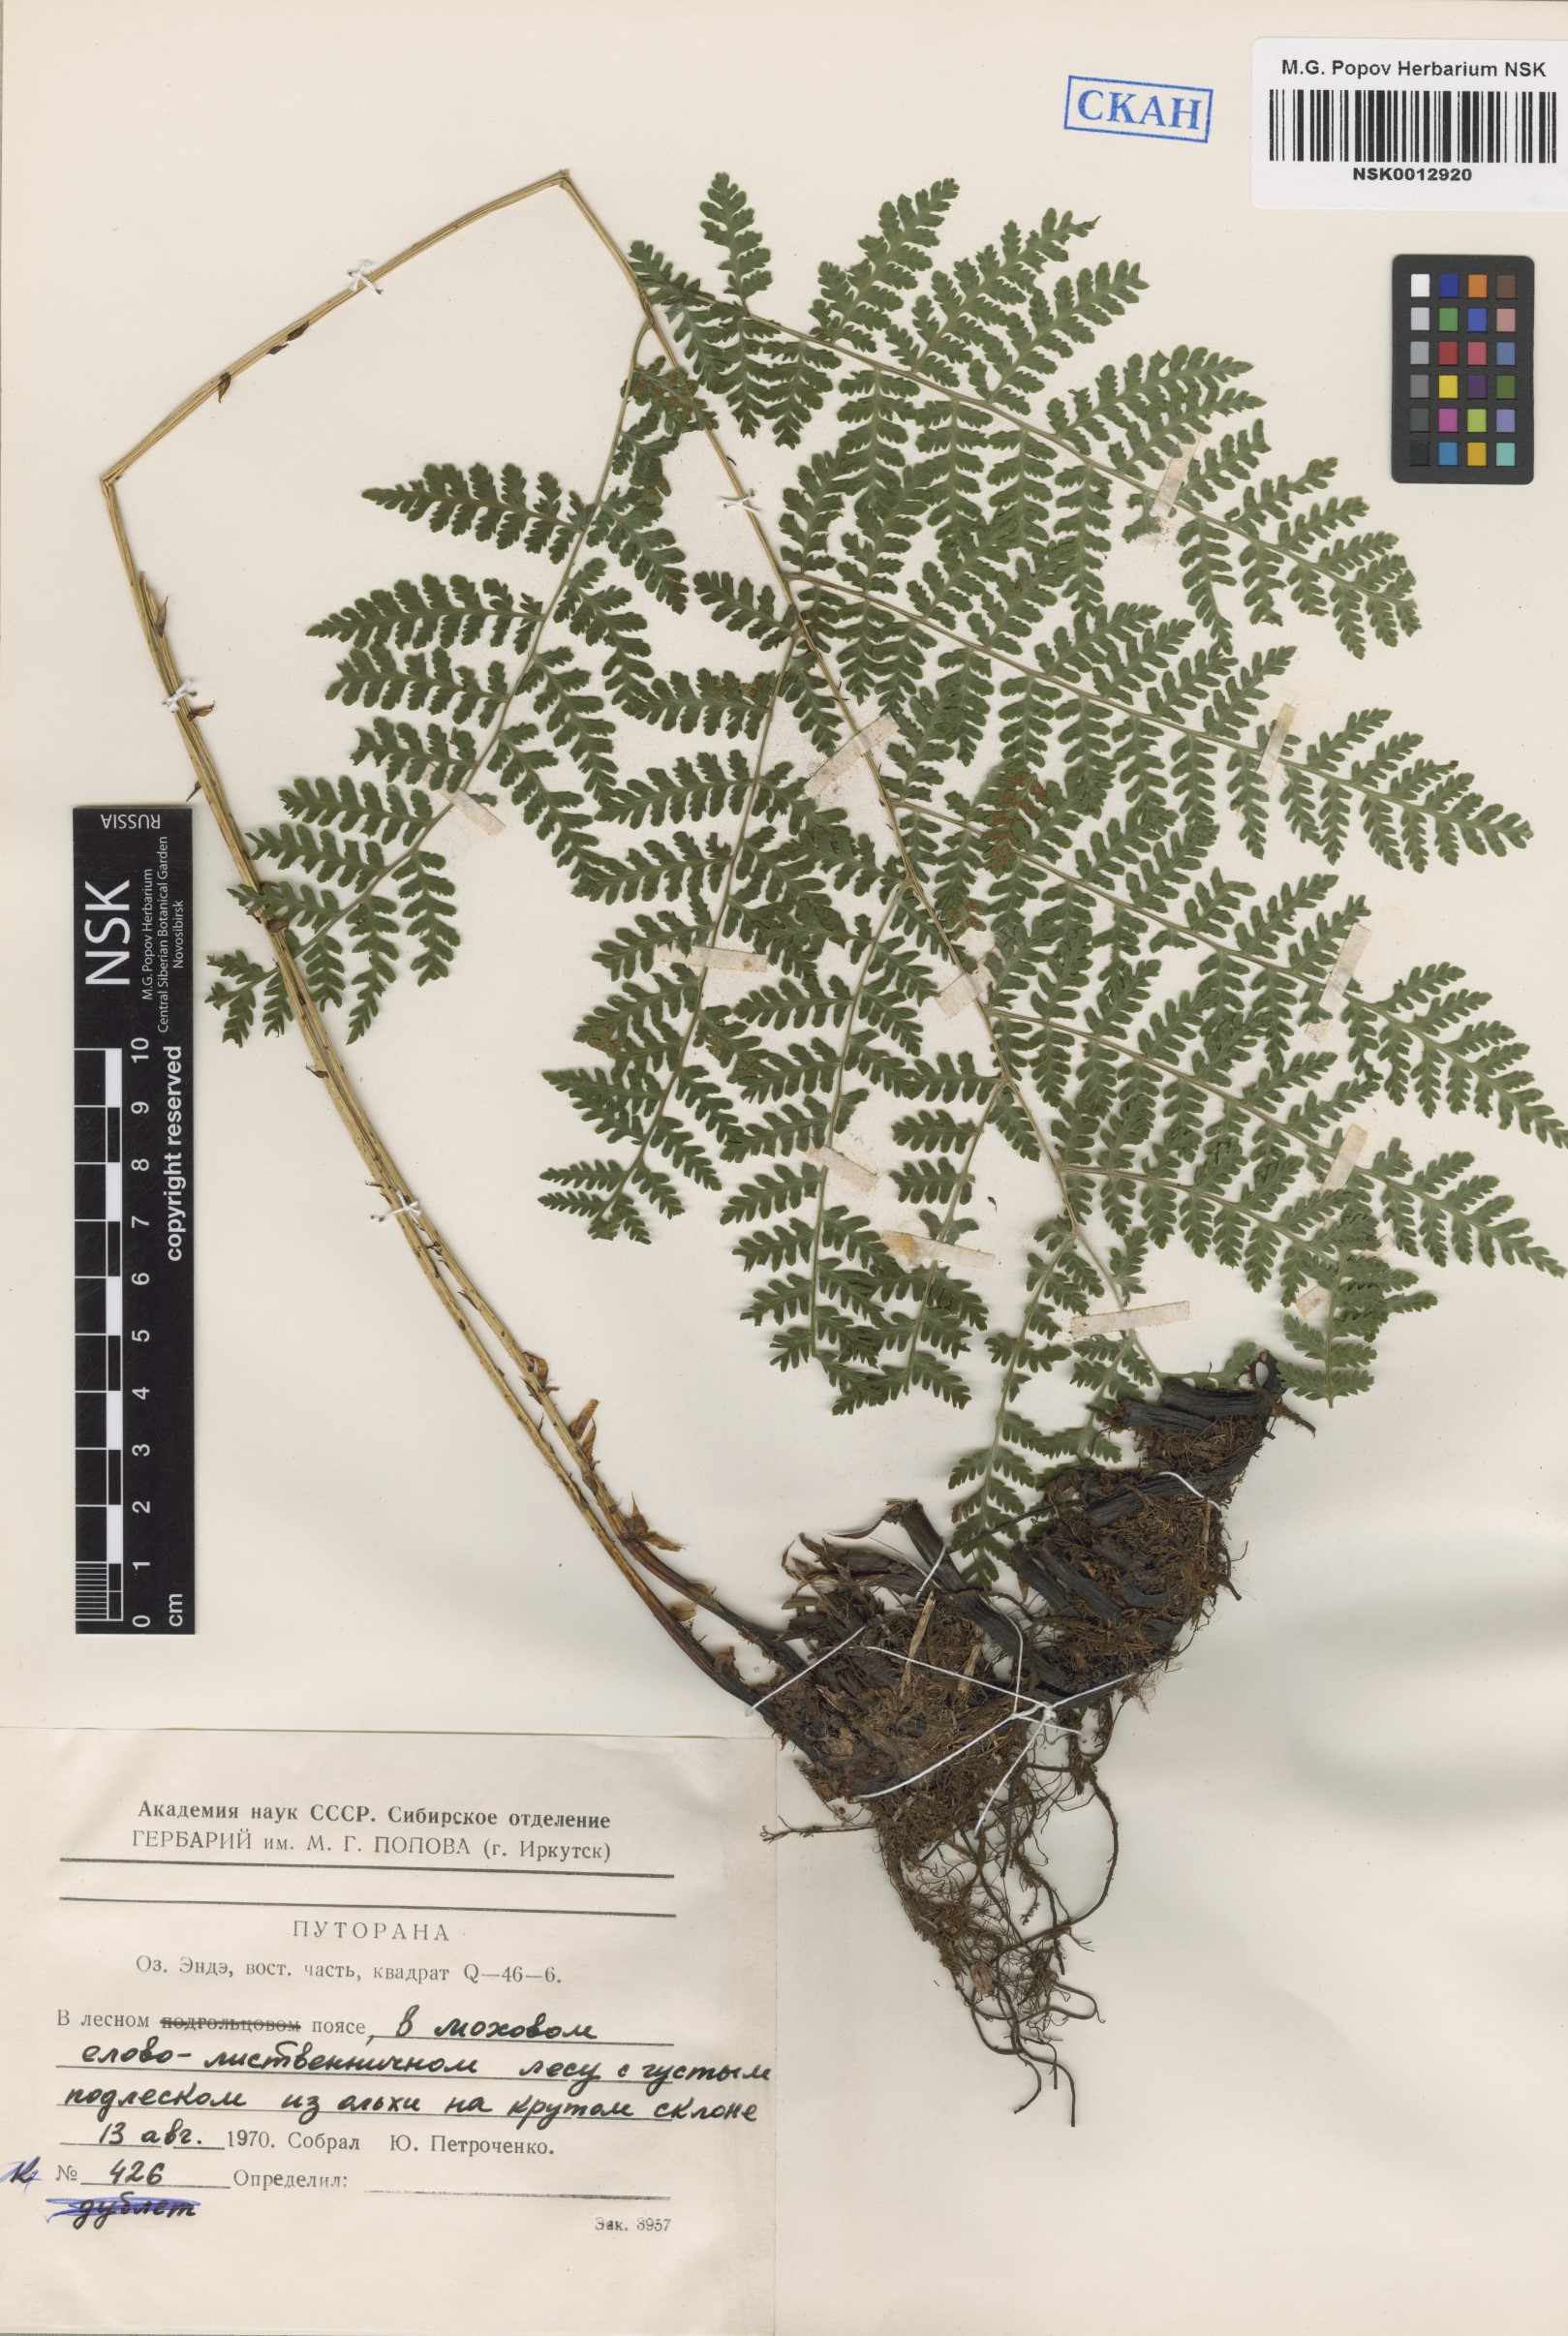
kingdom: Plantae
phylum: Tracheophyta
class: Polypodiopsida
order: Polypodiales
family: Athyriaceae
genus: Diplazium
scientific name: Diplazium sibiricum
